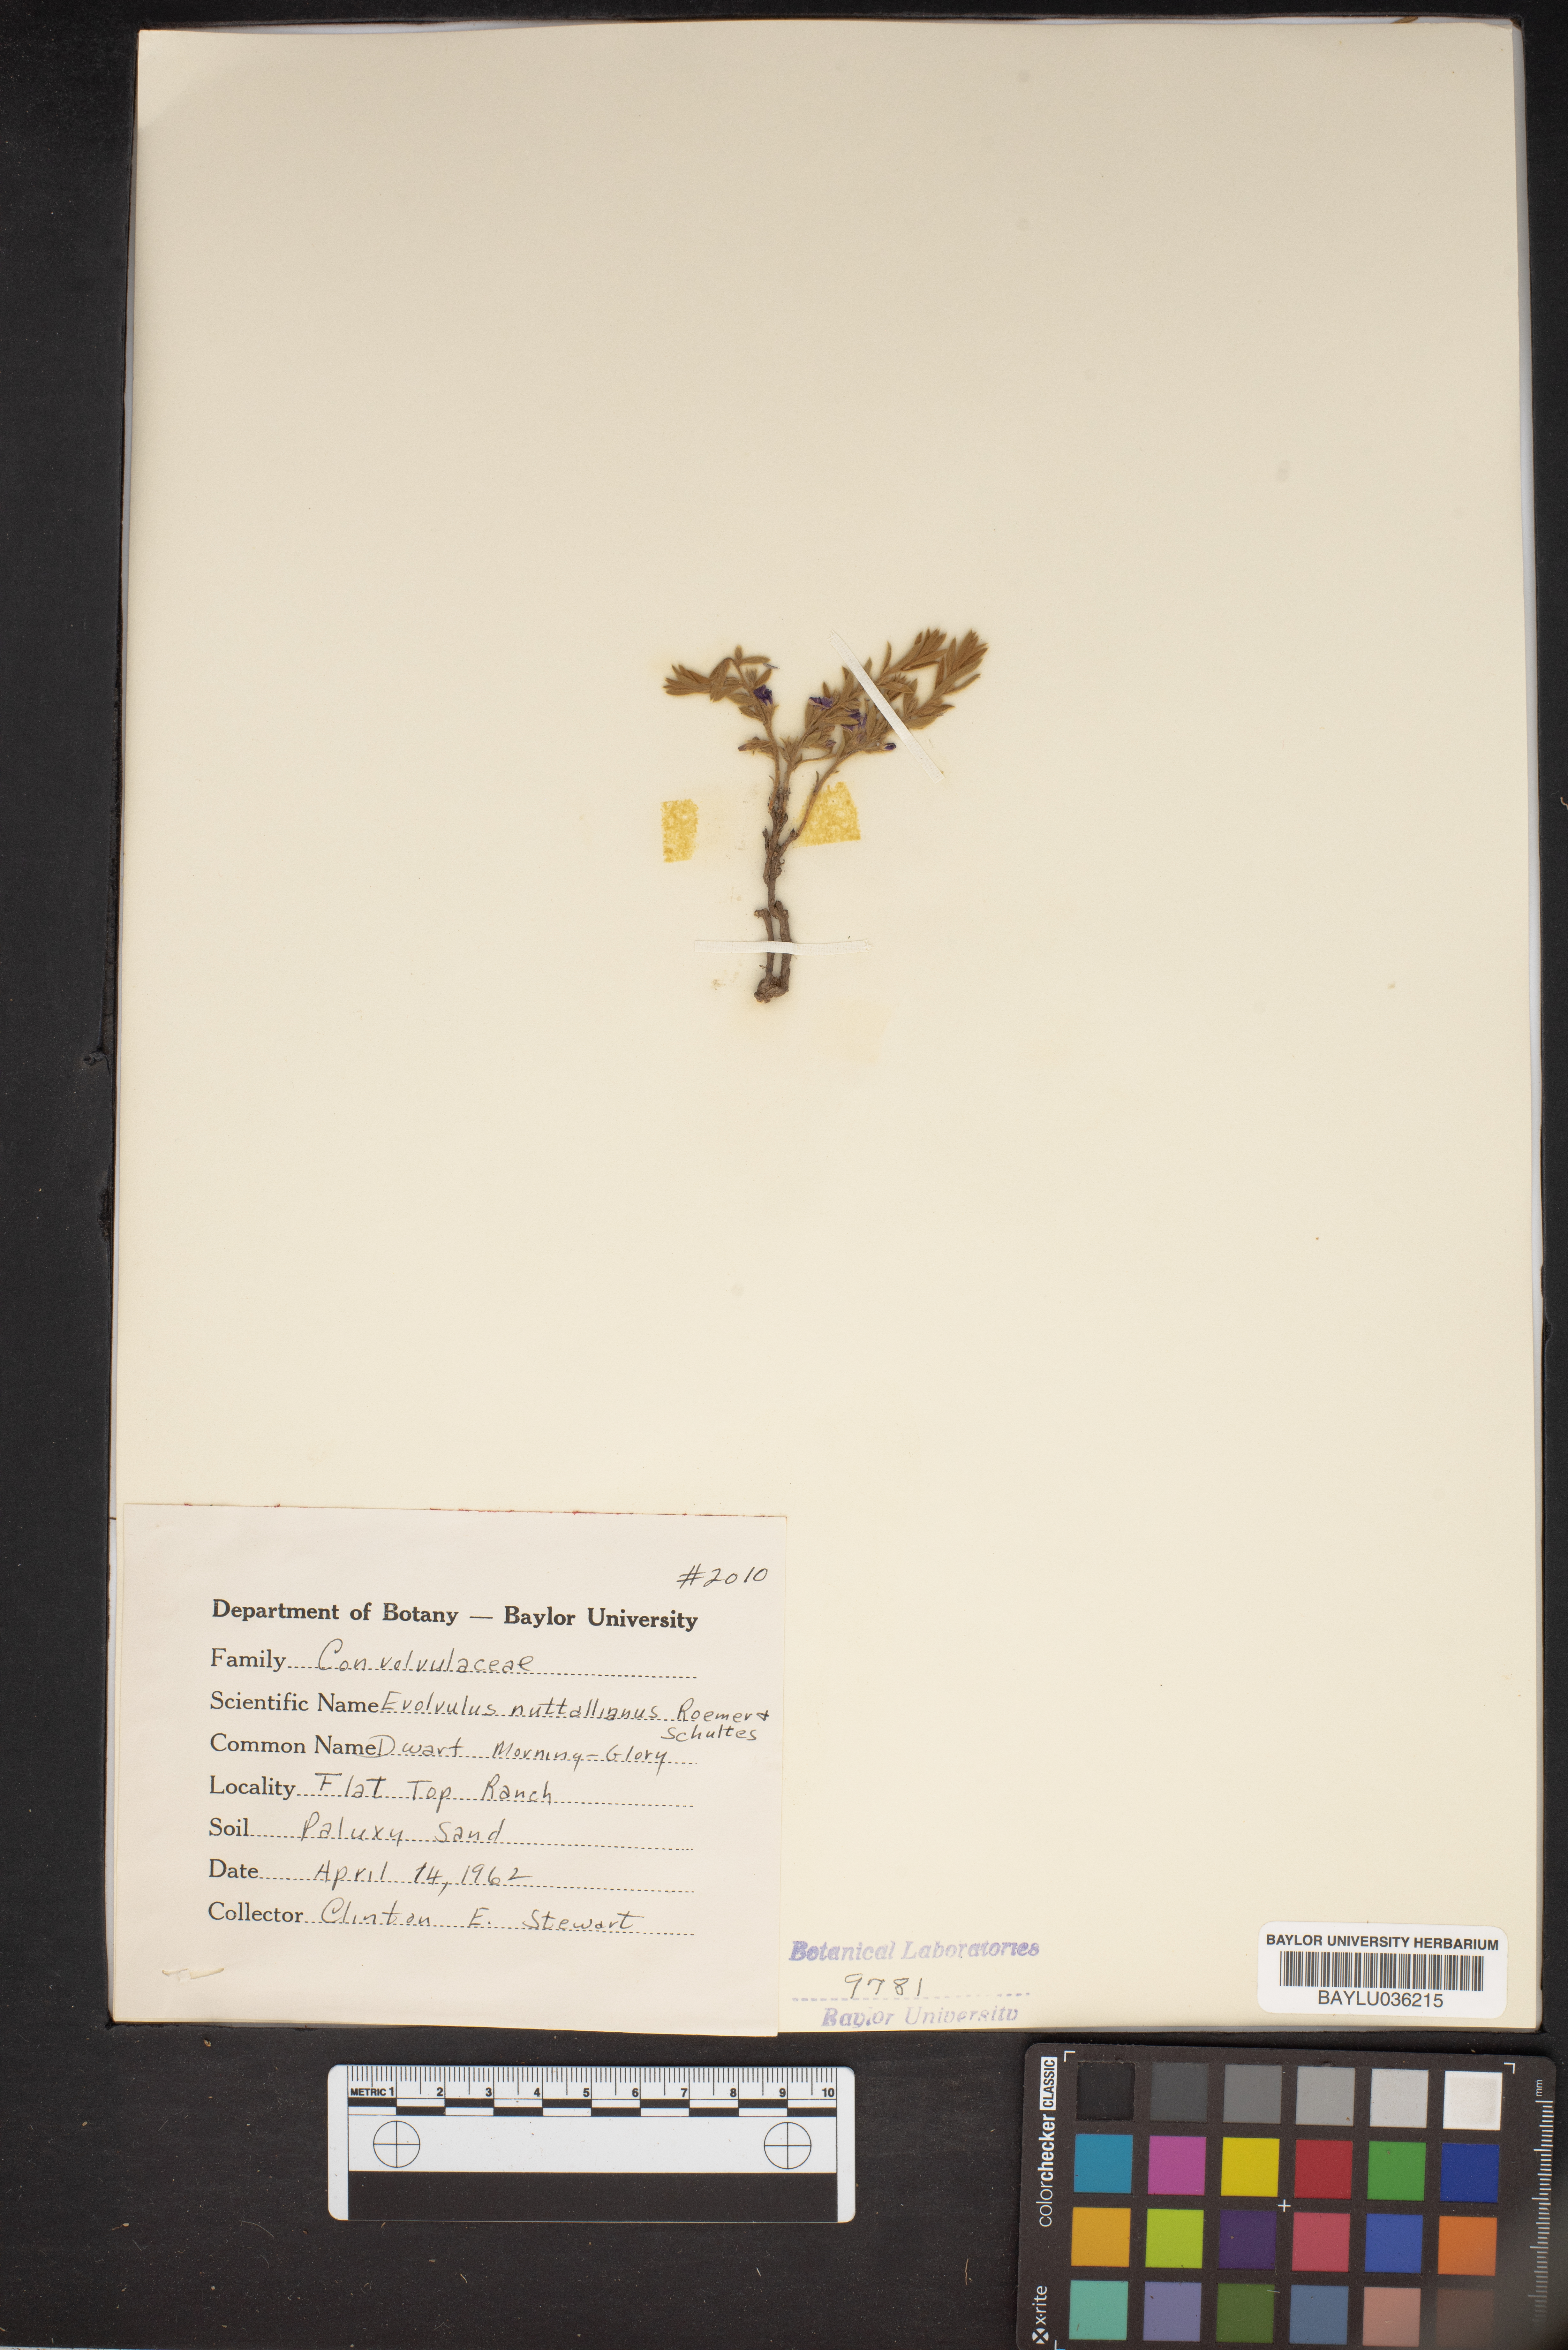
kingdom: Plantae
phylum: Tracheophyta
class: Magnoliopsida
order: Solanales
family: Convolvulaceae
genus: Evolvulus
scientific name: Evolvulus nuttallianus
